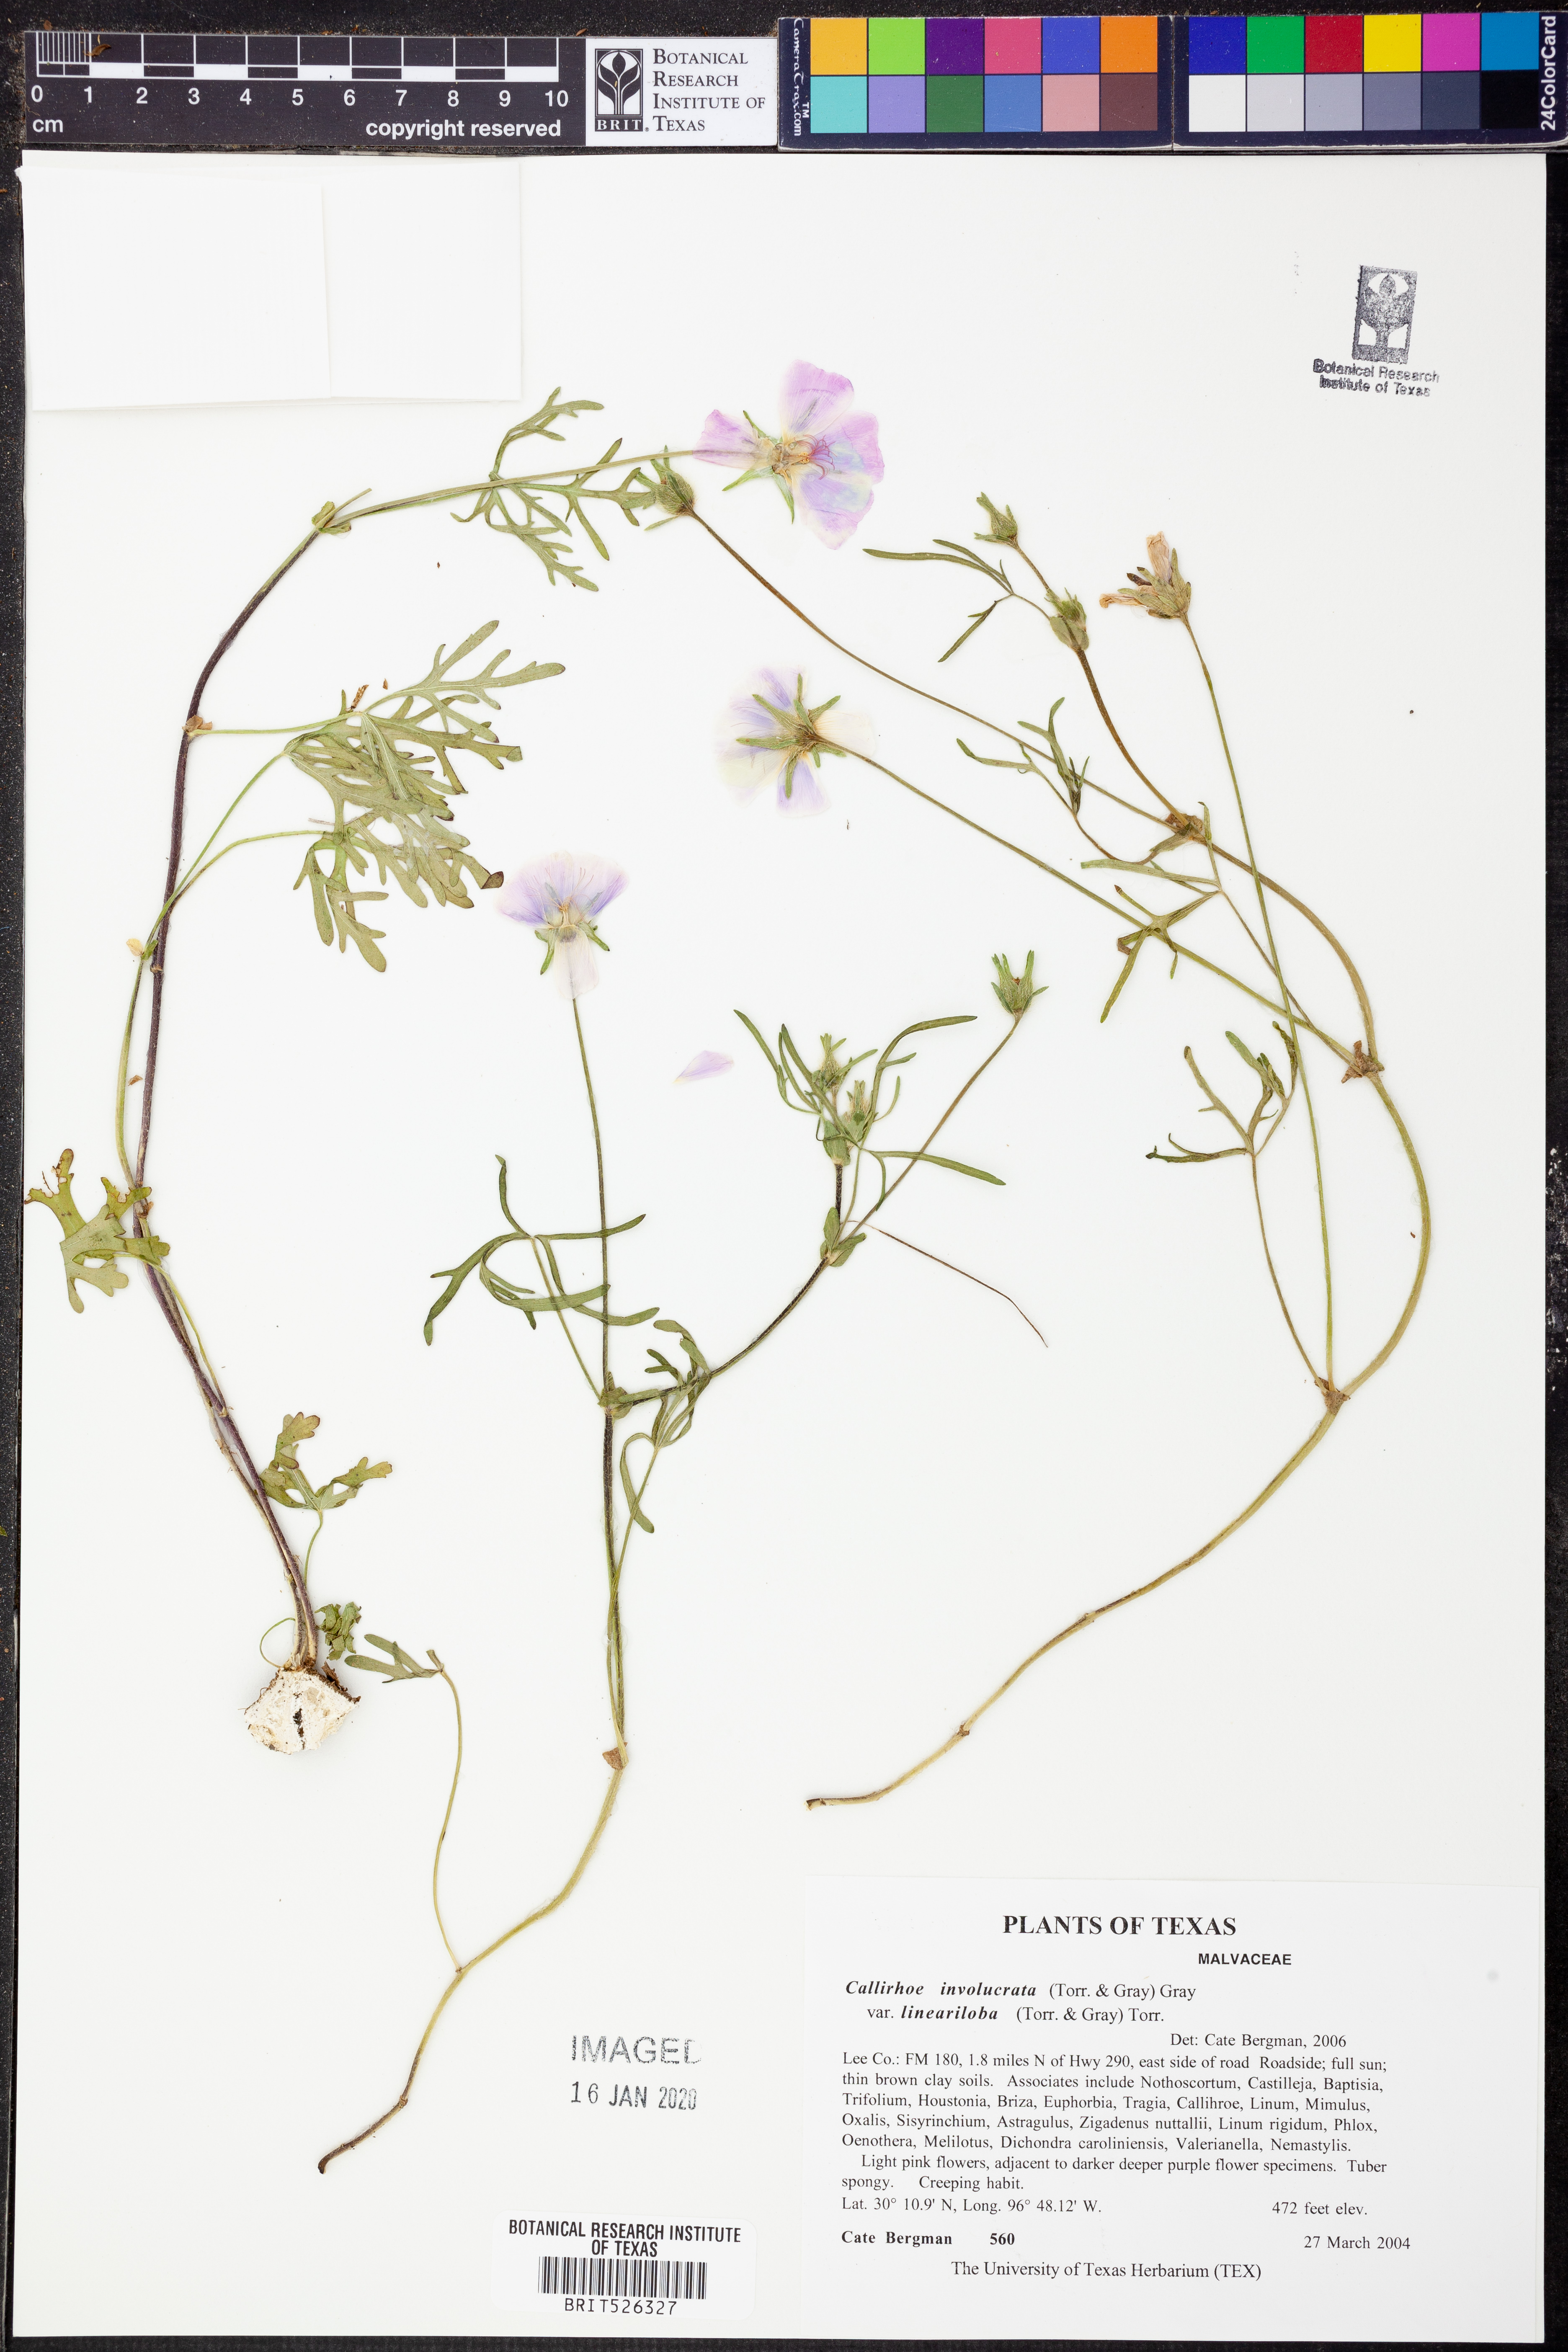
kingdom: Plantae
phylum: Tracheophyta
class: Magnoliopsida
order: Malvales
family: Malvaceae
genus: Callirhoe
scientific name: Callirhoe involucrata
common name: Purple poppy-mallow
